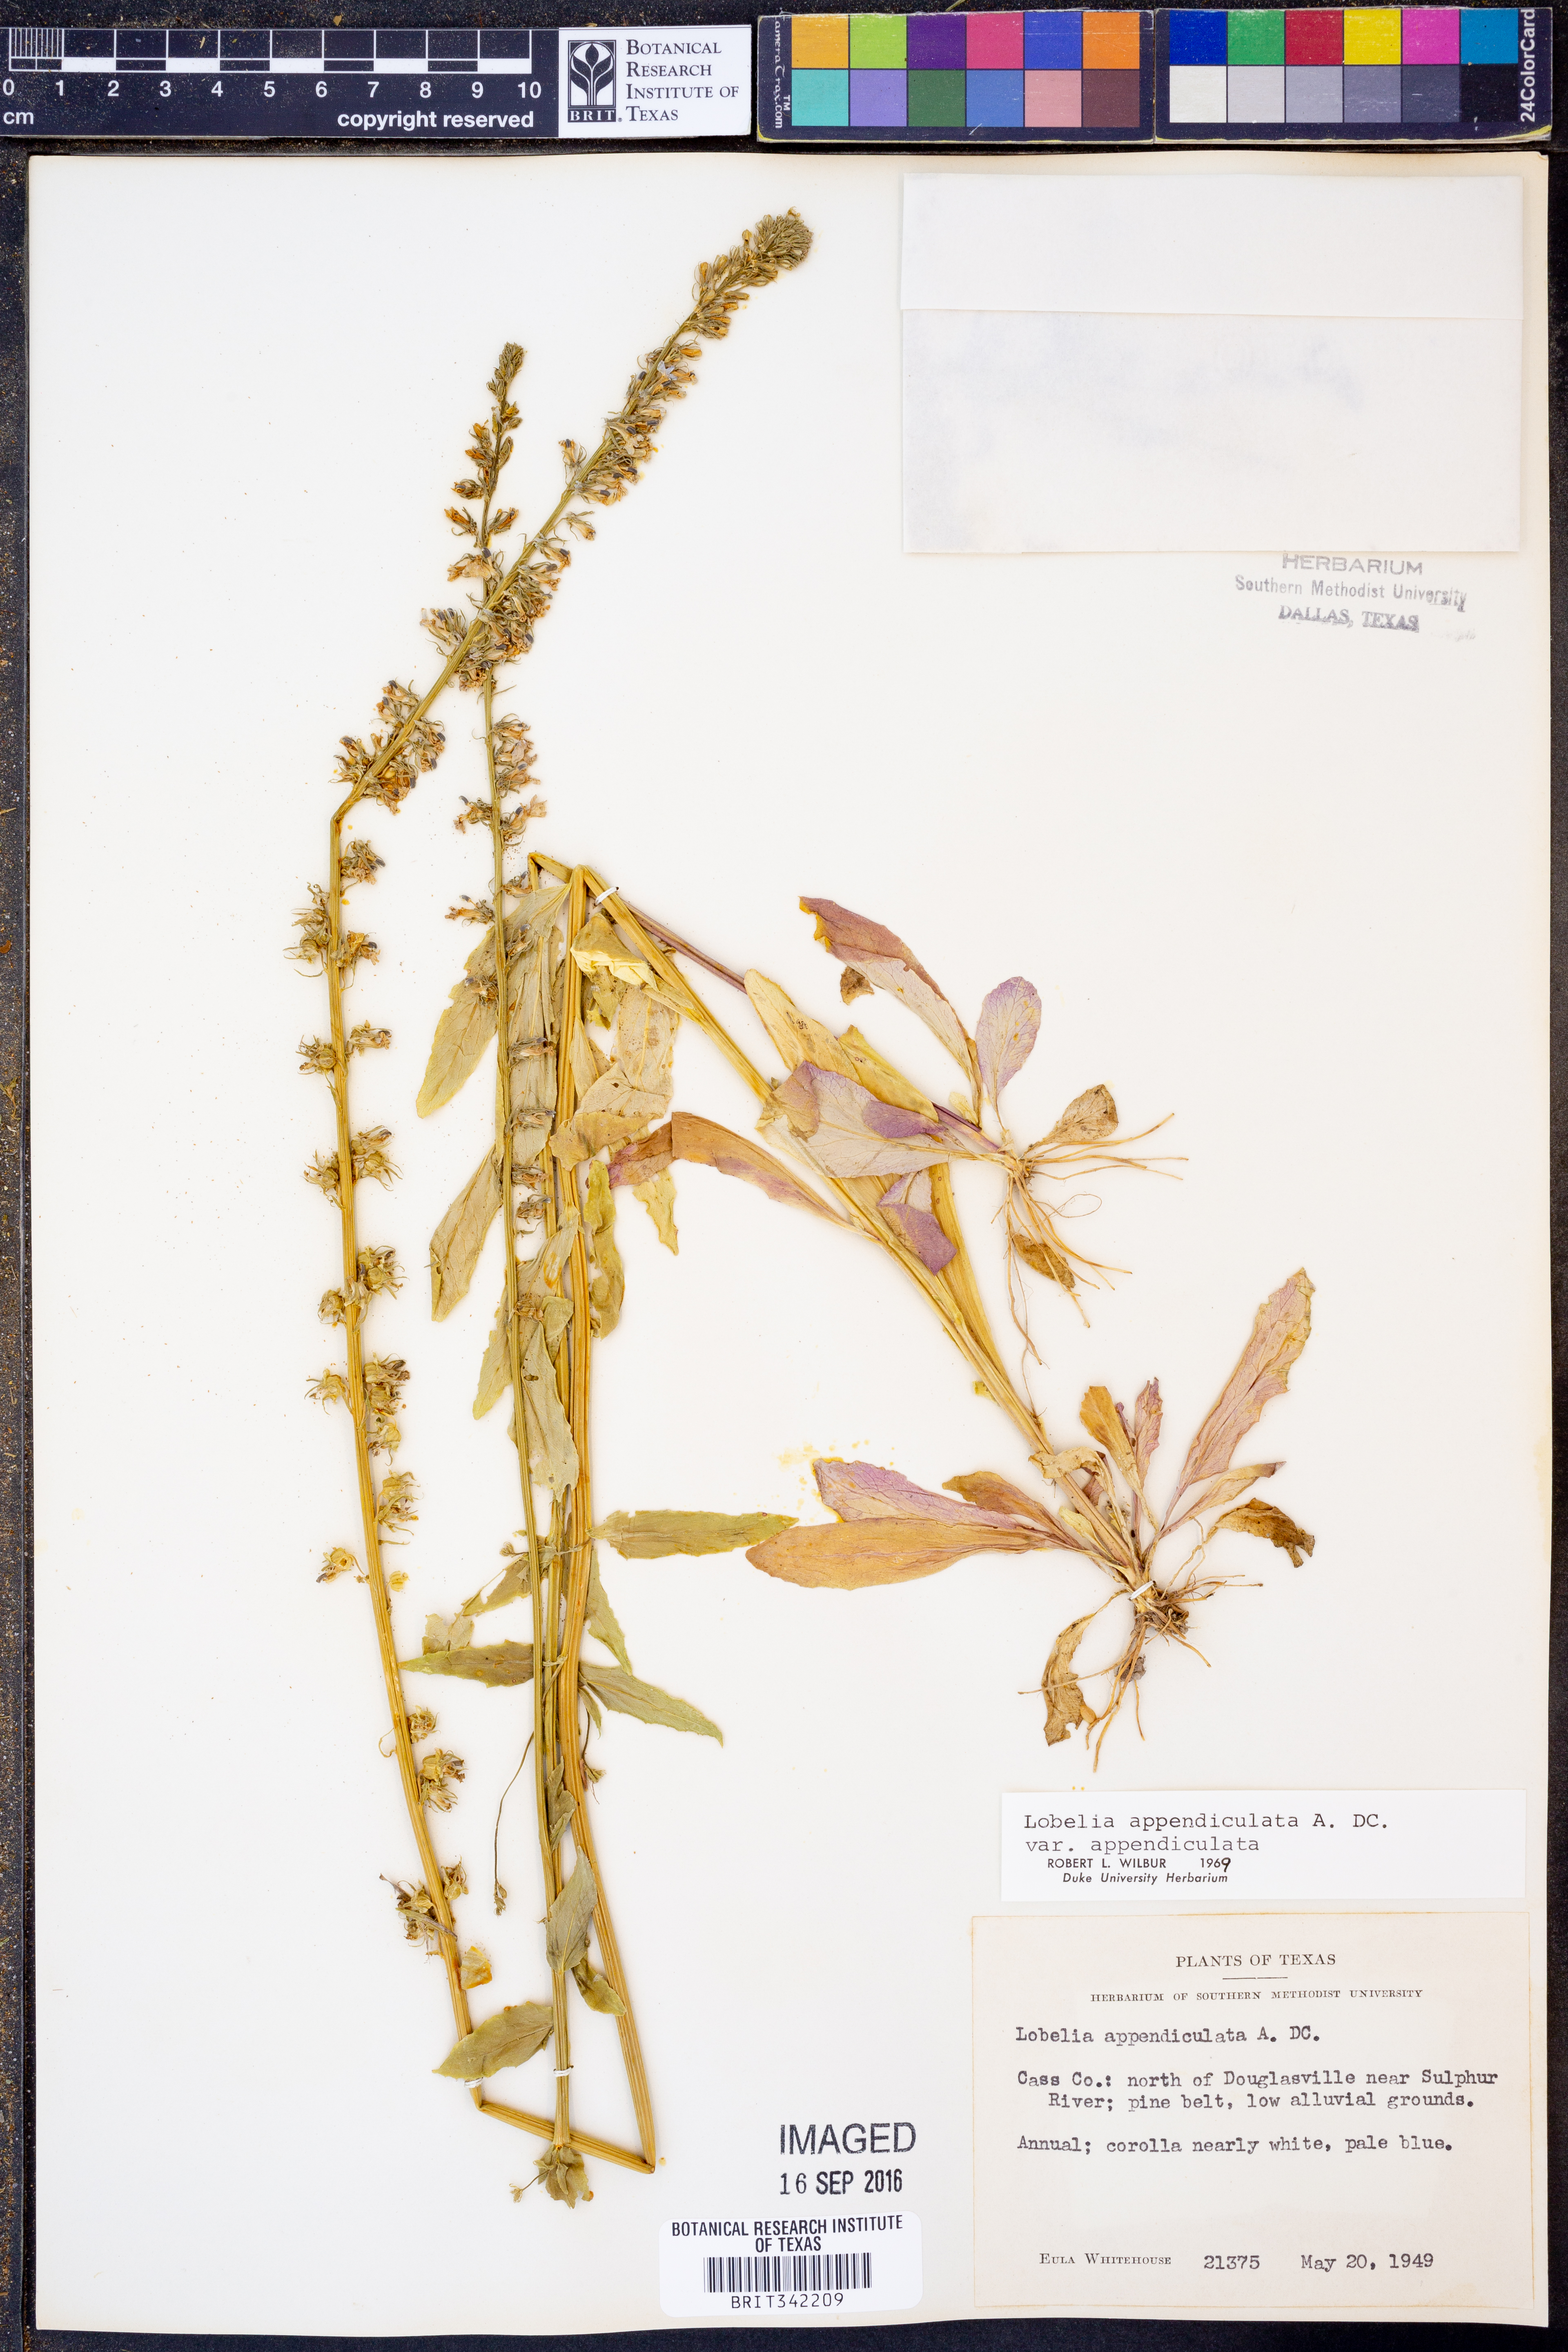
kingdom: Plantae
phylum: Tracheophyta
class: Magnoliopsida
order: Asterales
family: Campanulaceae
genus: Lobelia
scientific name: Lobelia appendiculata
